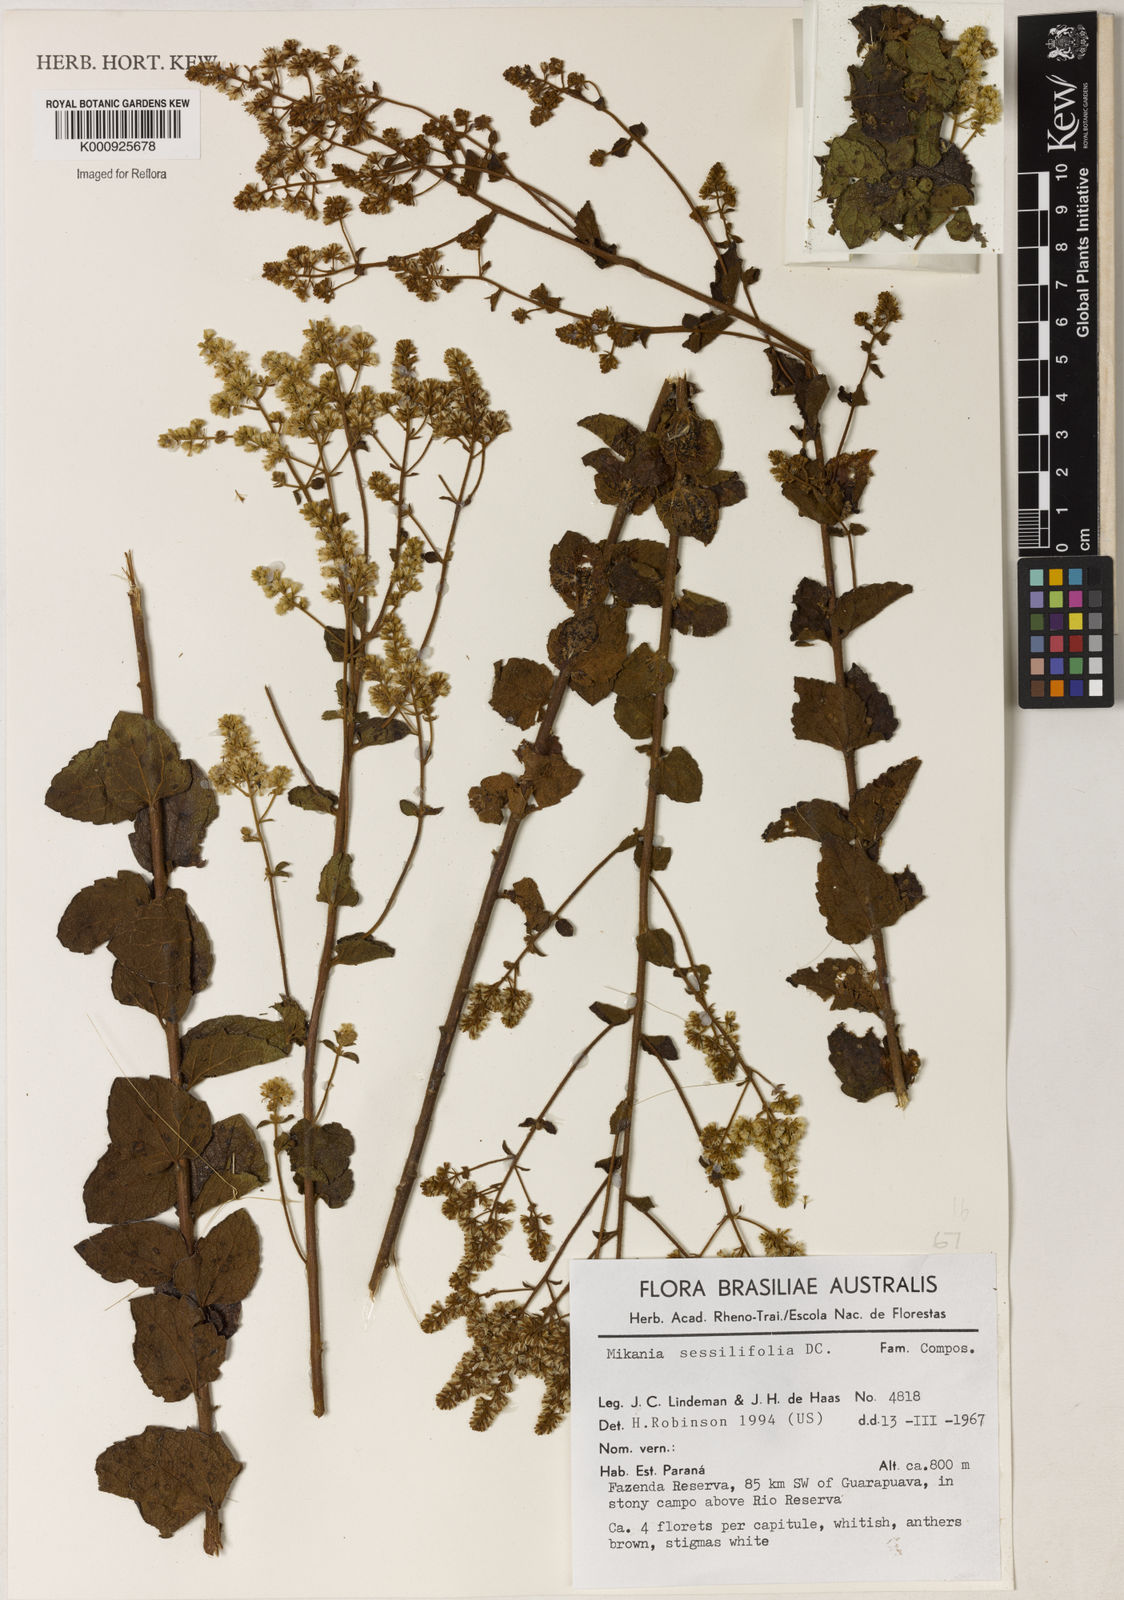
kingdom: Plantae
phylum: Tracheophyta
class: Magnoliopsida
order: Asterales
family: Asteraceae
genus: Mikania
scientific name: Mikania sessilifolia
